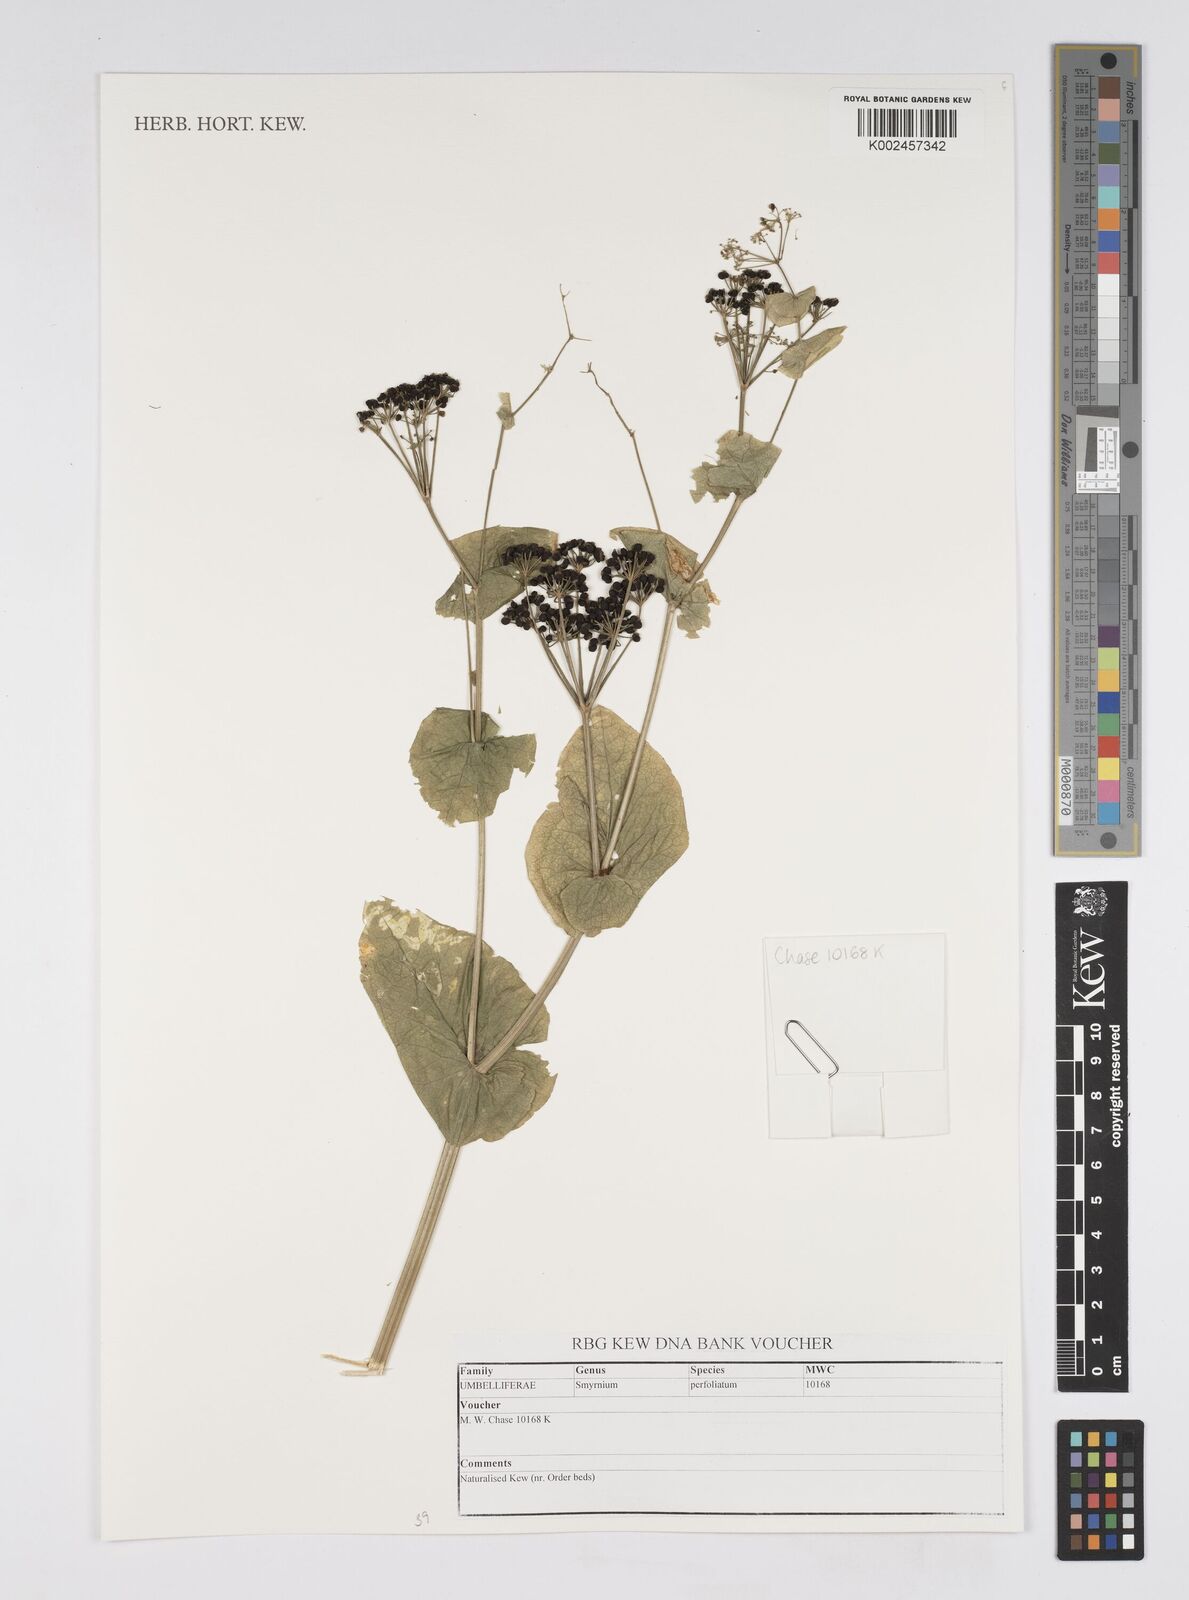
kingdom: Plantae
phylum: Tracheophyta
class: Magnoliopsida
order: Apiales
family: Apiaceae
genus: Smyrnium
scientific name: Smyrnium perfoliatum
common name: Perfoliate alexanders
